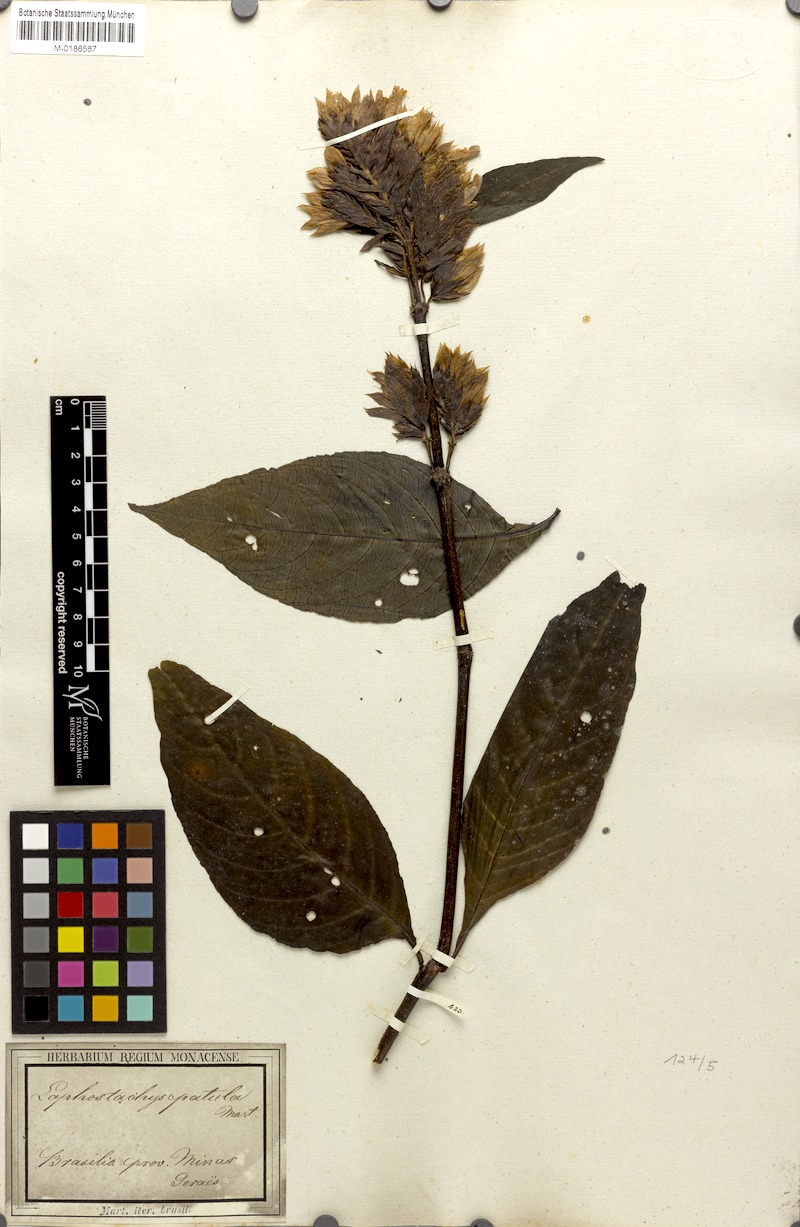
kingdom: Plantae
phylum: Tracheophyta
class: Magnoliopsida
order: Lamiales
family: Acanthaceae
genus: Lepidagathis
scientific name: Lepidagathis laxifolia
